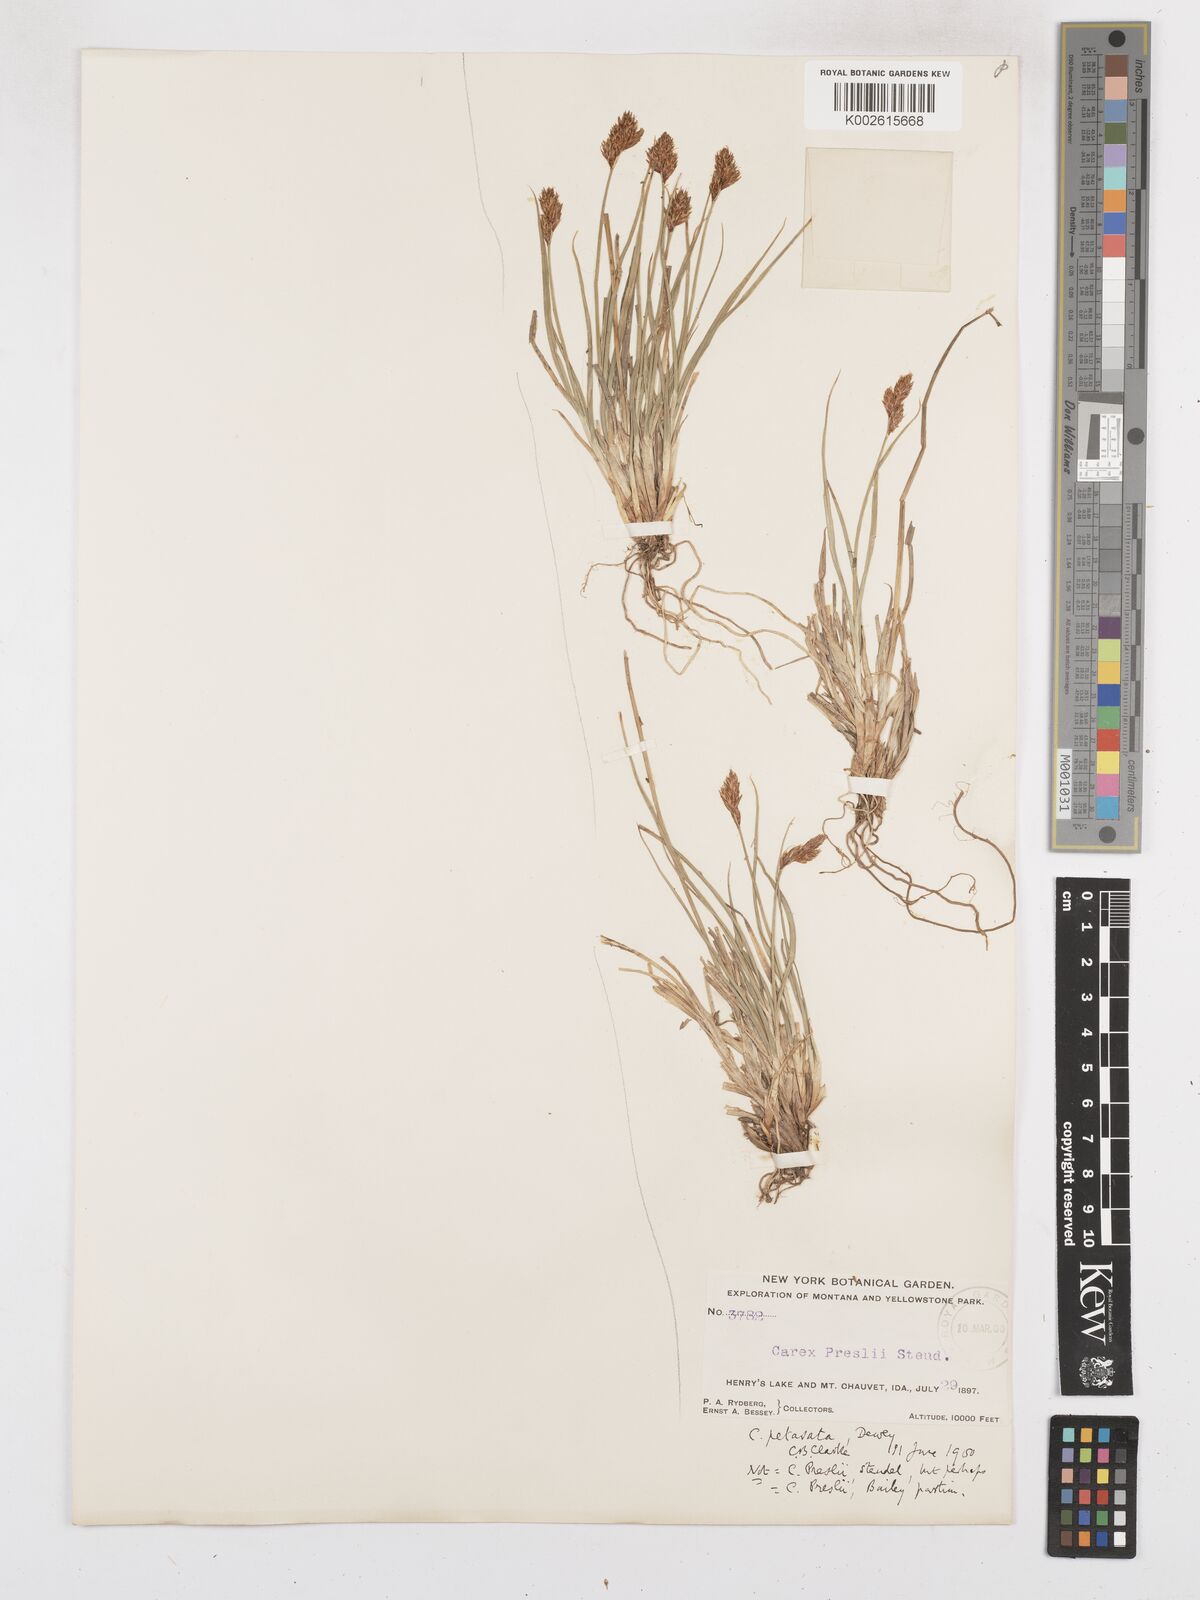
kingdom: Plantae
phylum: Tracheophyta
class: Liliopsida
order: Poales
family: Cyperaceae
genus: Carex
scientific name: Carex preslii
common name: Presl's sedge
